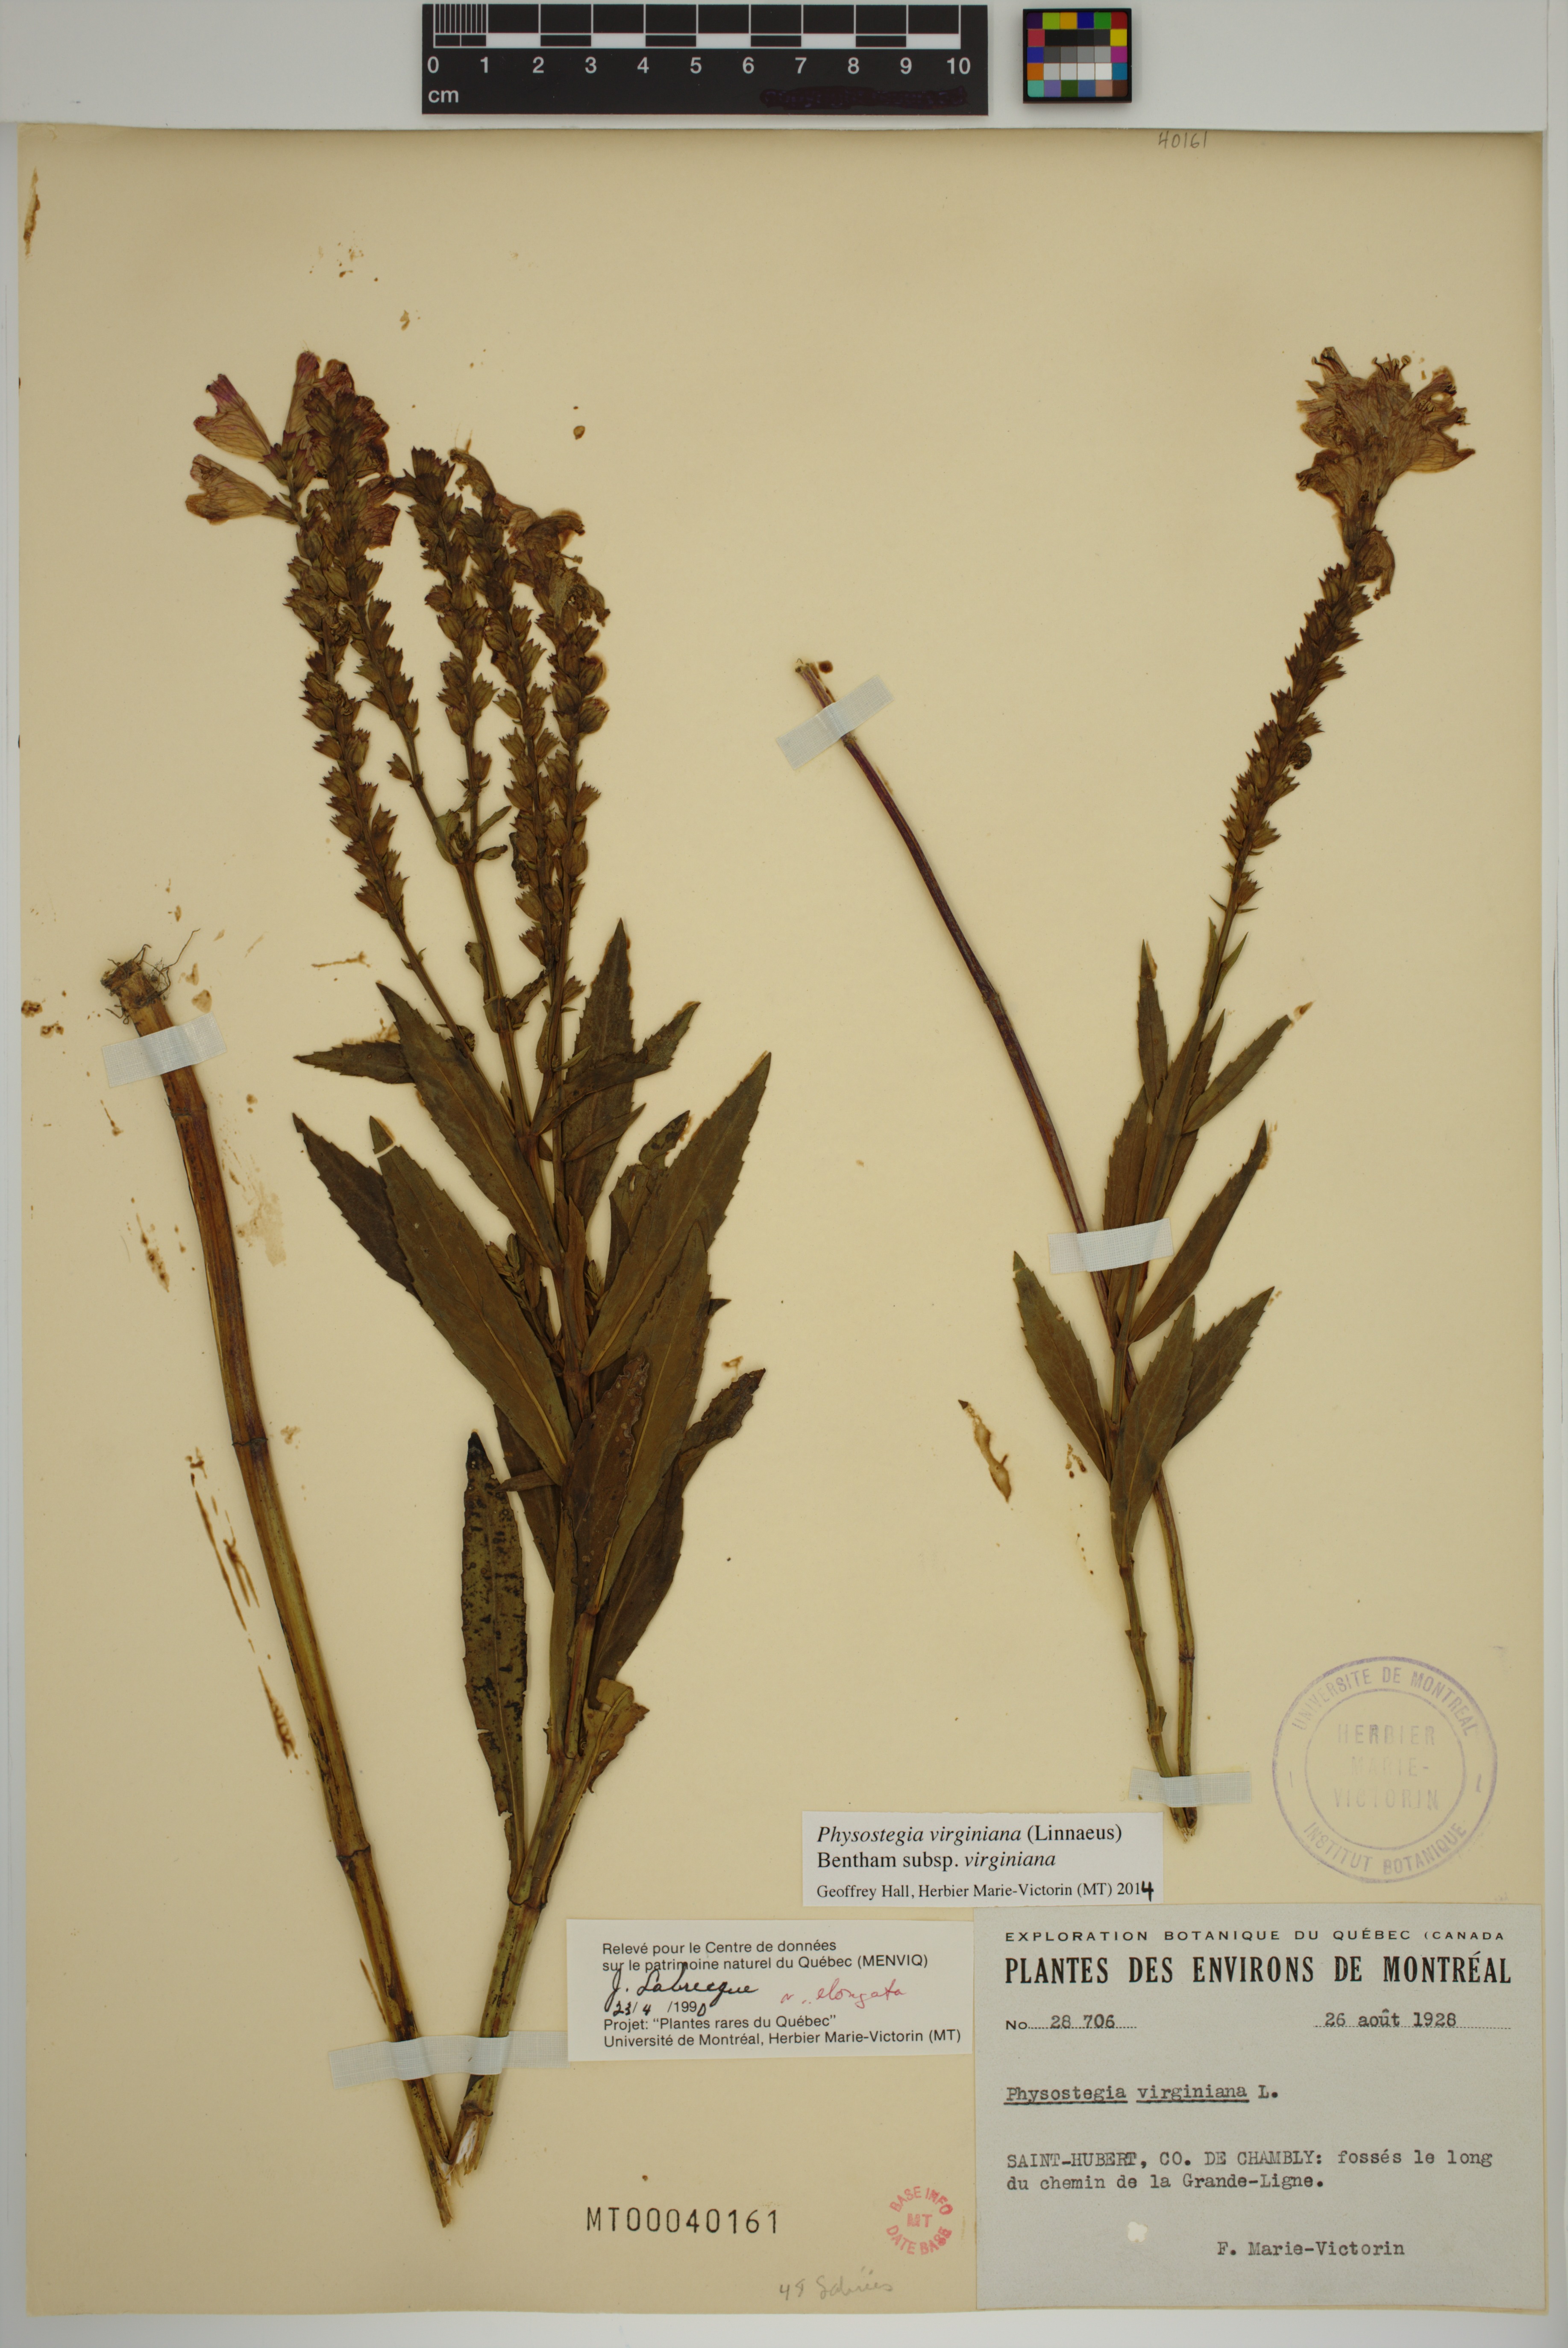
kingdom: Plantae
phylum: Tracheophyta
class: Magnoliopsida
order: Lamiales
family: Lamiaceae
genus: Physostegia
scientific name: Physostegia virginiana
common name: Obedient-plant
